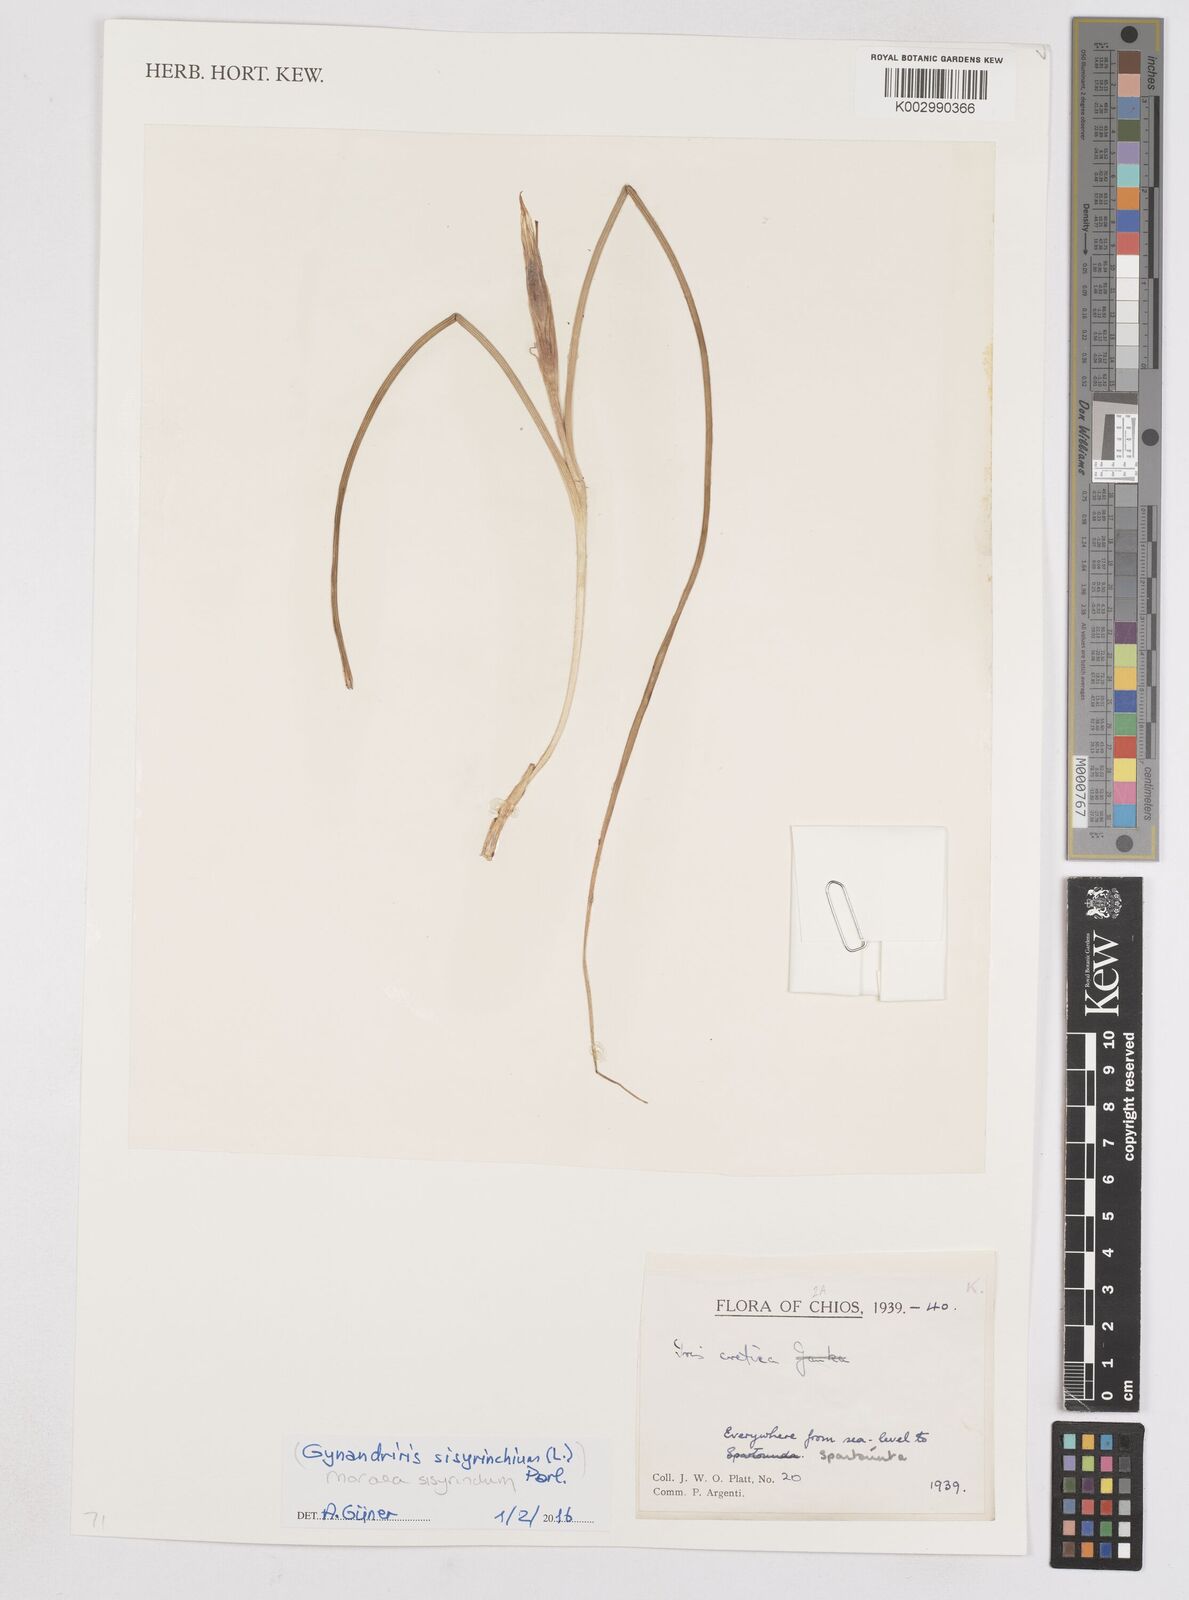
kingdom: Plantae
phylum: Tracheophyta
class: Liliopsida
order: Asparagales
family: Iridaceae
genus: Moraea
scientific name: Moraea sisyrinchium
